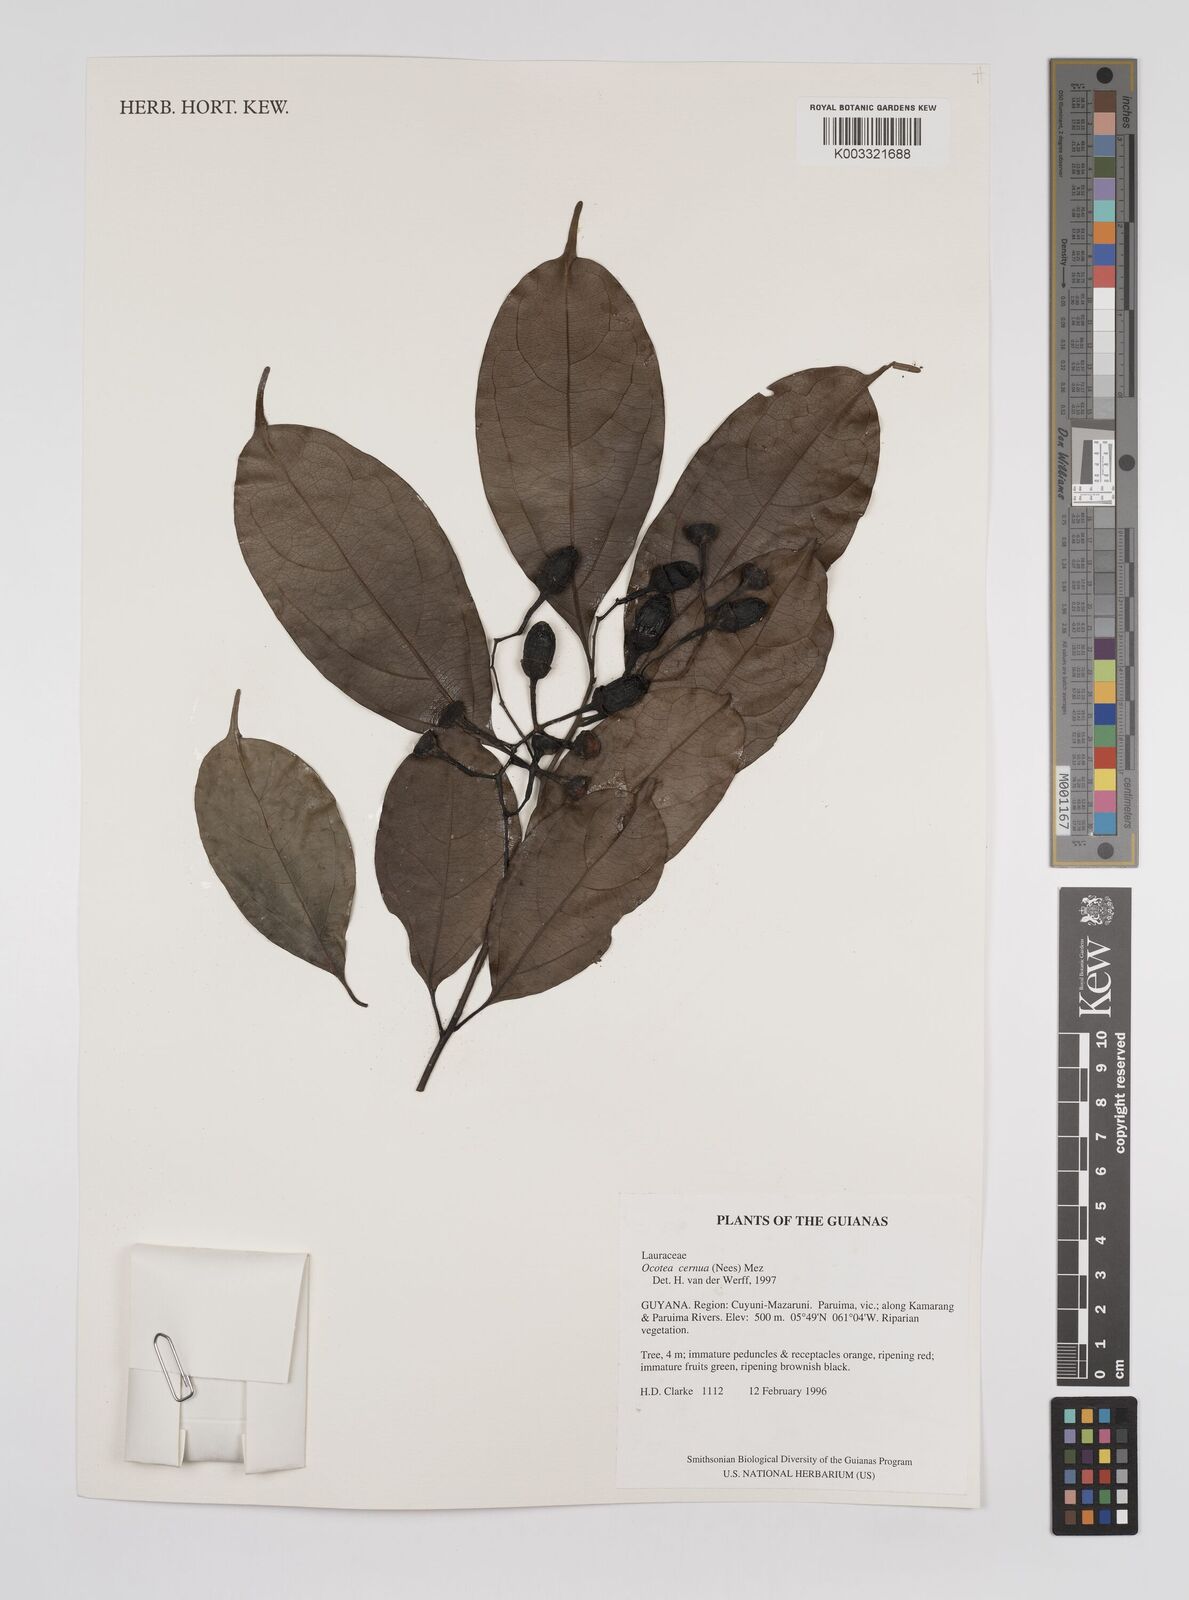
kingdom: Plantae
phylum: Tracheophyta
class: Magnoliopsida
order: Laurales
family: Lauraceae
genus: Ocotea
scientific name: Ocotea leptobotra
